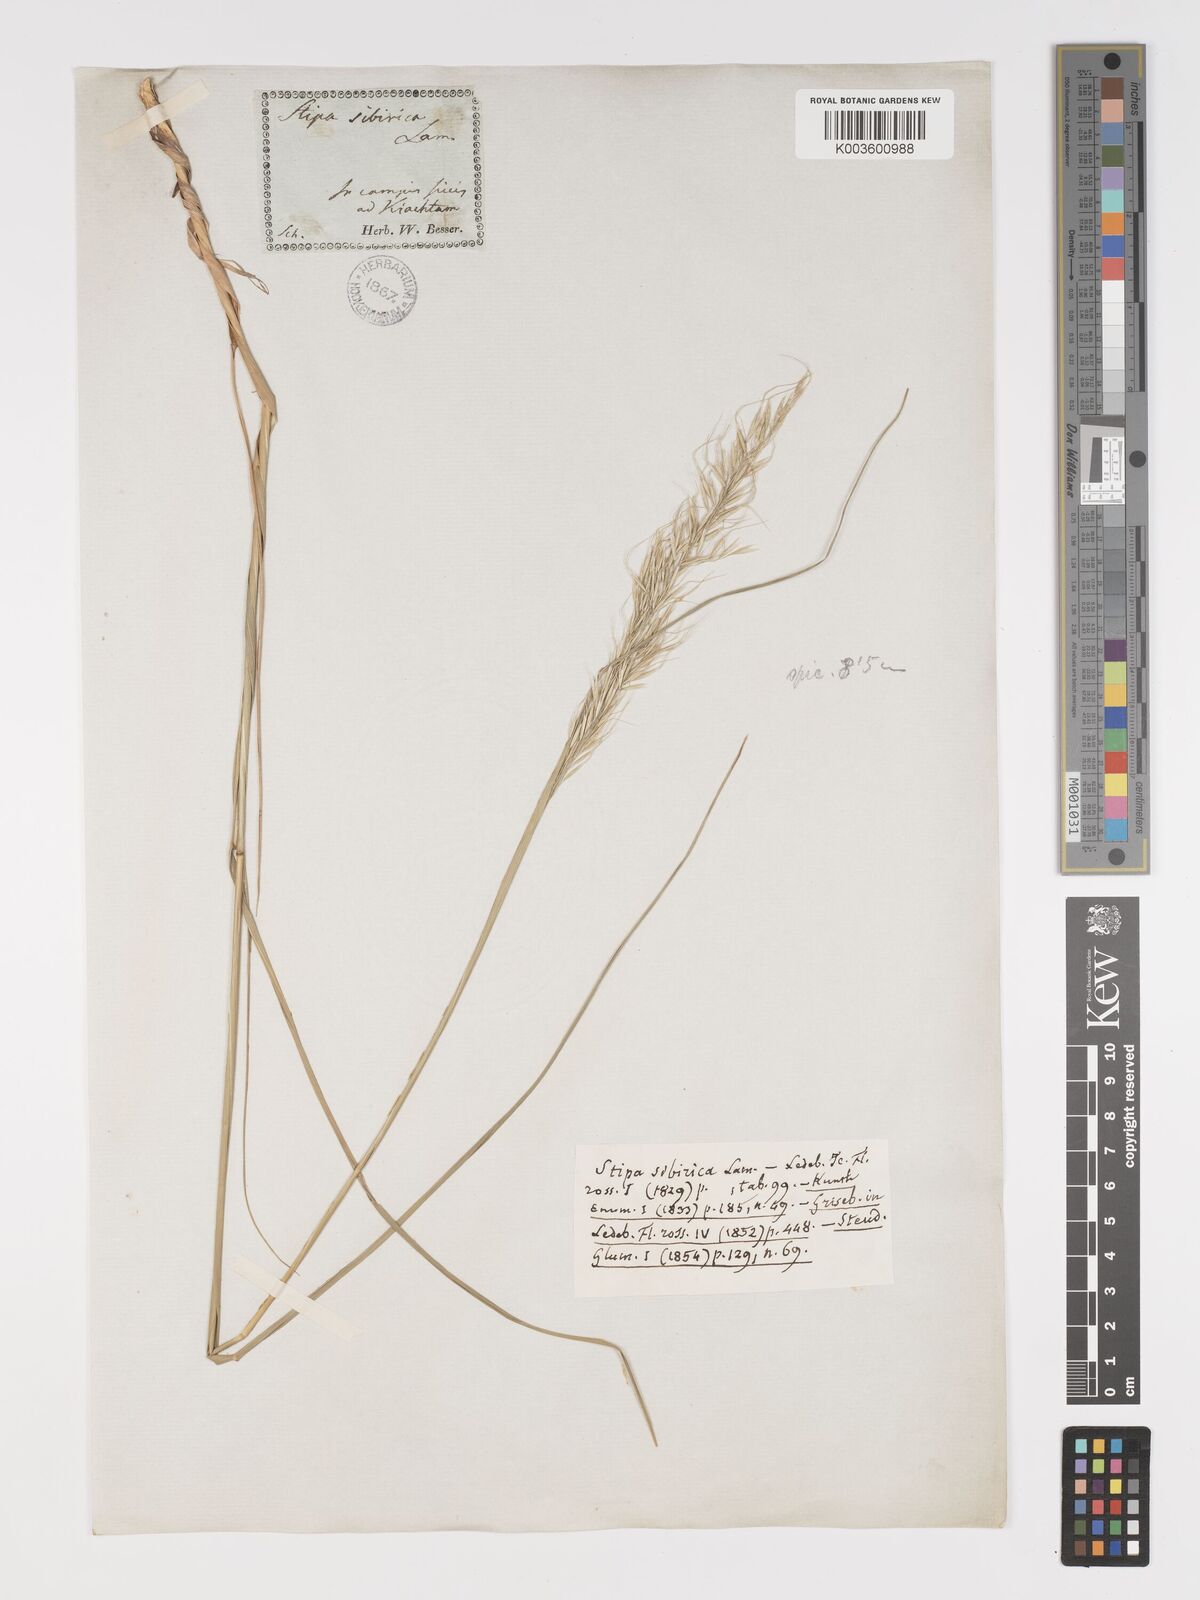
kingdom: Plantae
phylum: Tracheophyta
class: Liliopsida
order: Poales
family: Poaceae
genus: Achnatherum
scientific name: Achnatherum sibiricum
